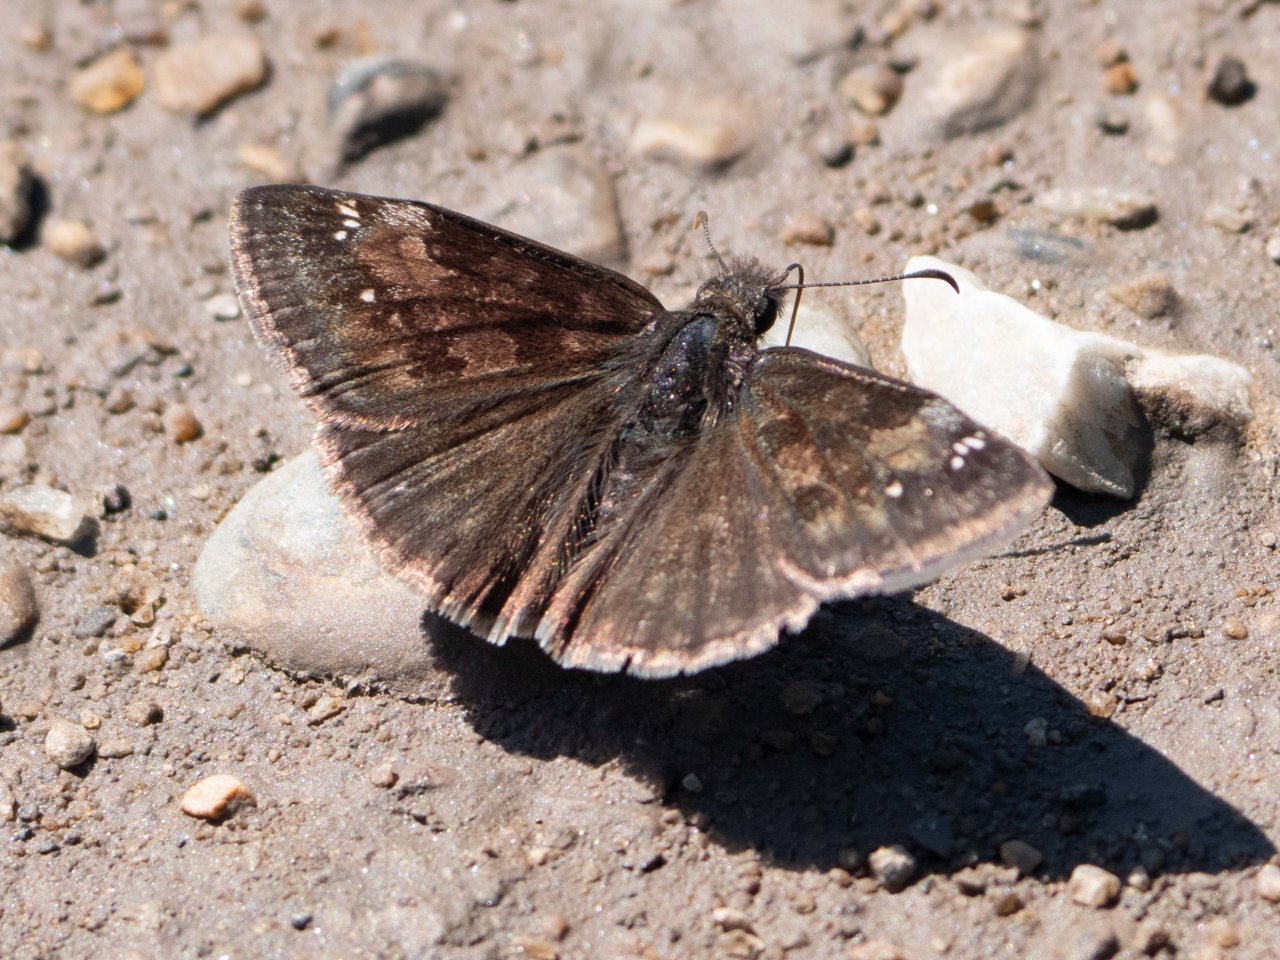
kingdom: Animalia
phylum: Arthropoda
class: Insecta
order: Lepidoptera
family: Hesperiidae
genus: Gesta
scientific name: Gesta
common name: Wild Indigo Duskywing
